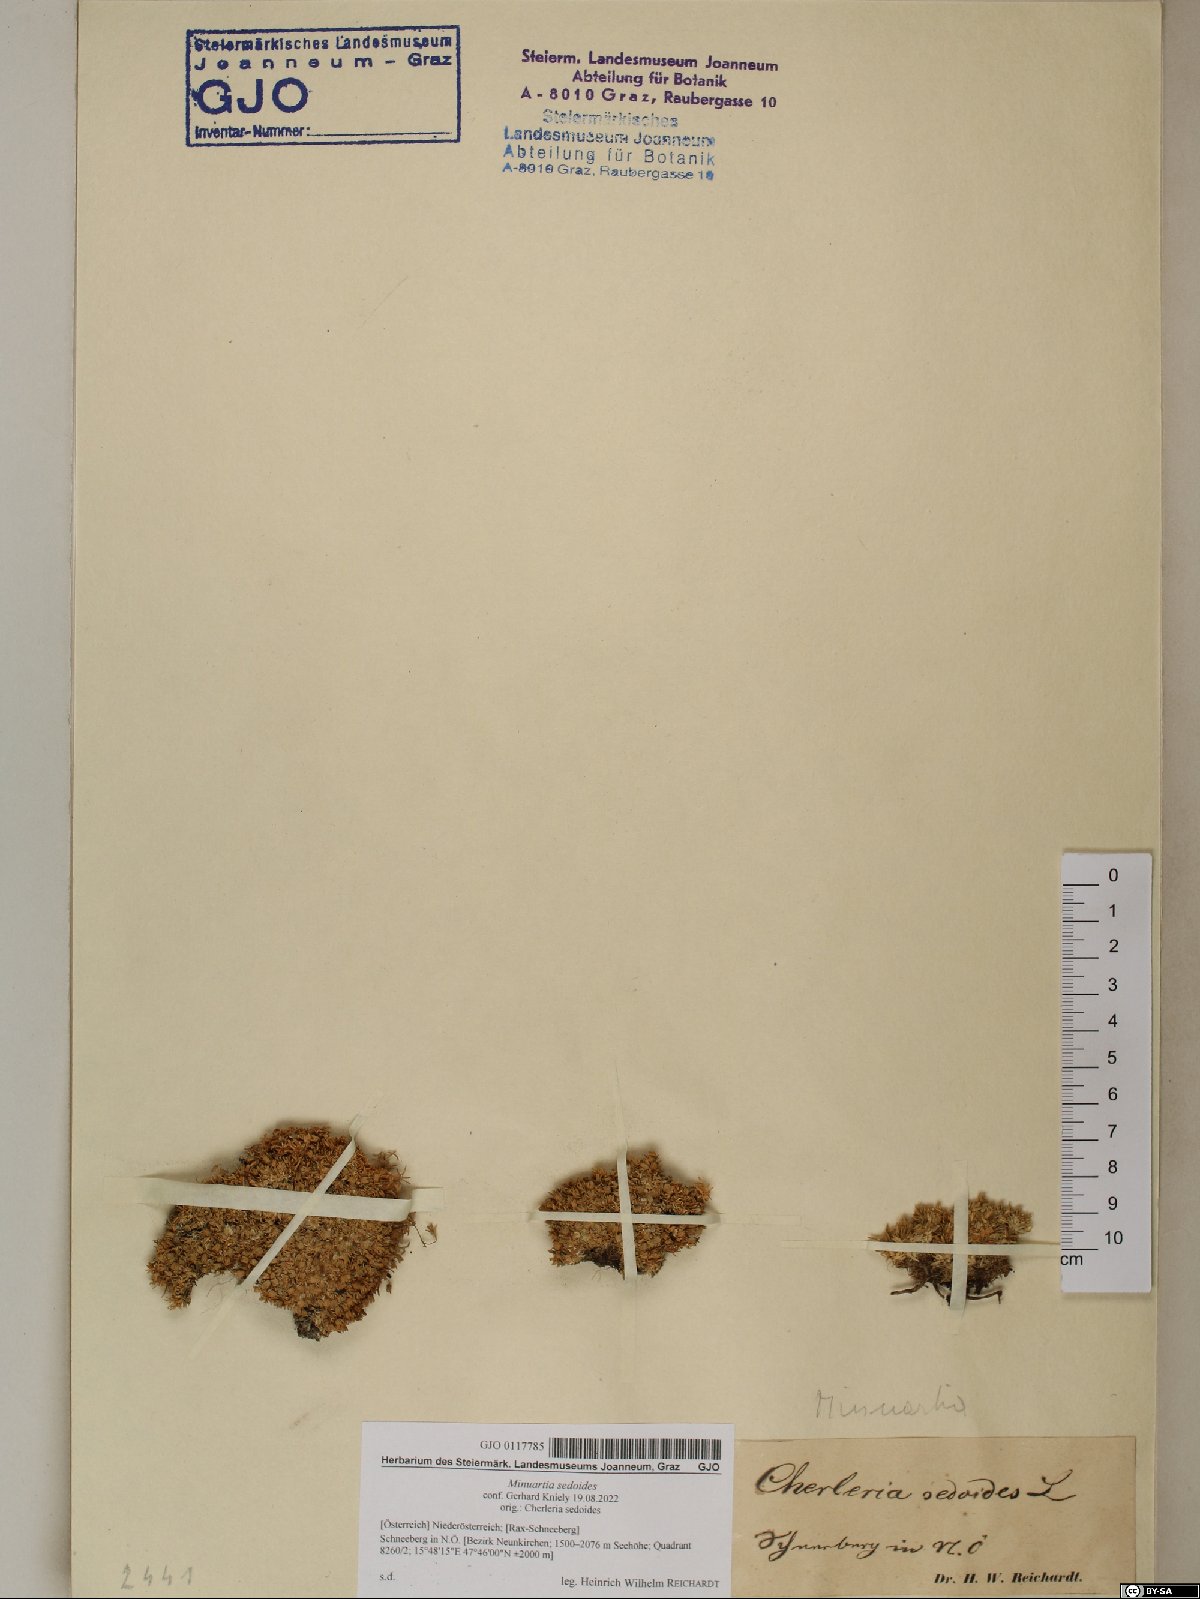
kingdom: Plantae
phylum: Tracheophyta
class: Magnoliopsida
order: Caryophyllales
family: Caryophyllaceae
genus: Cherleria
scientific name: Cherleria sedoides
